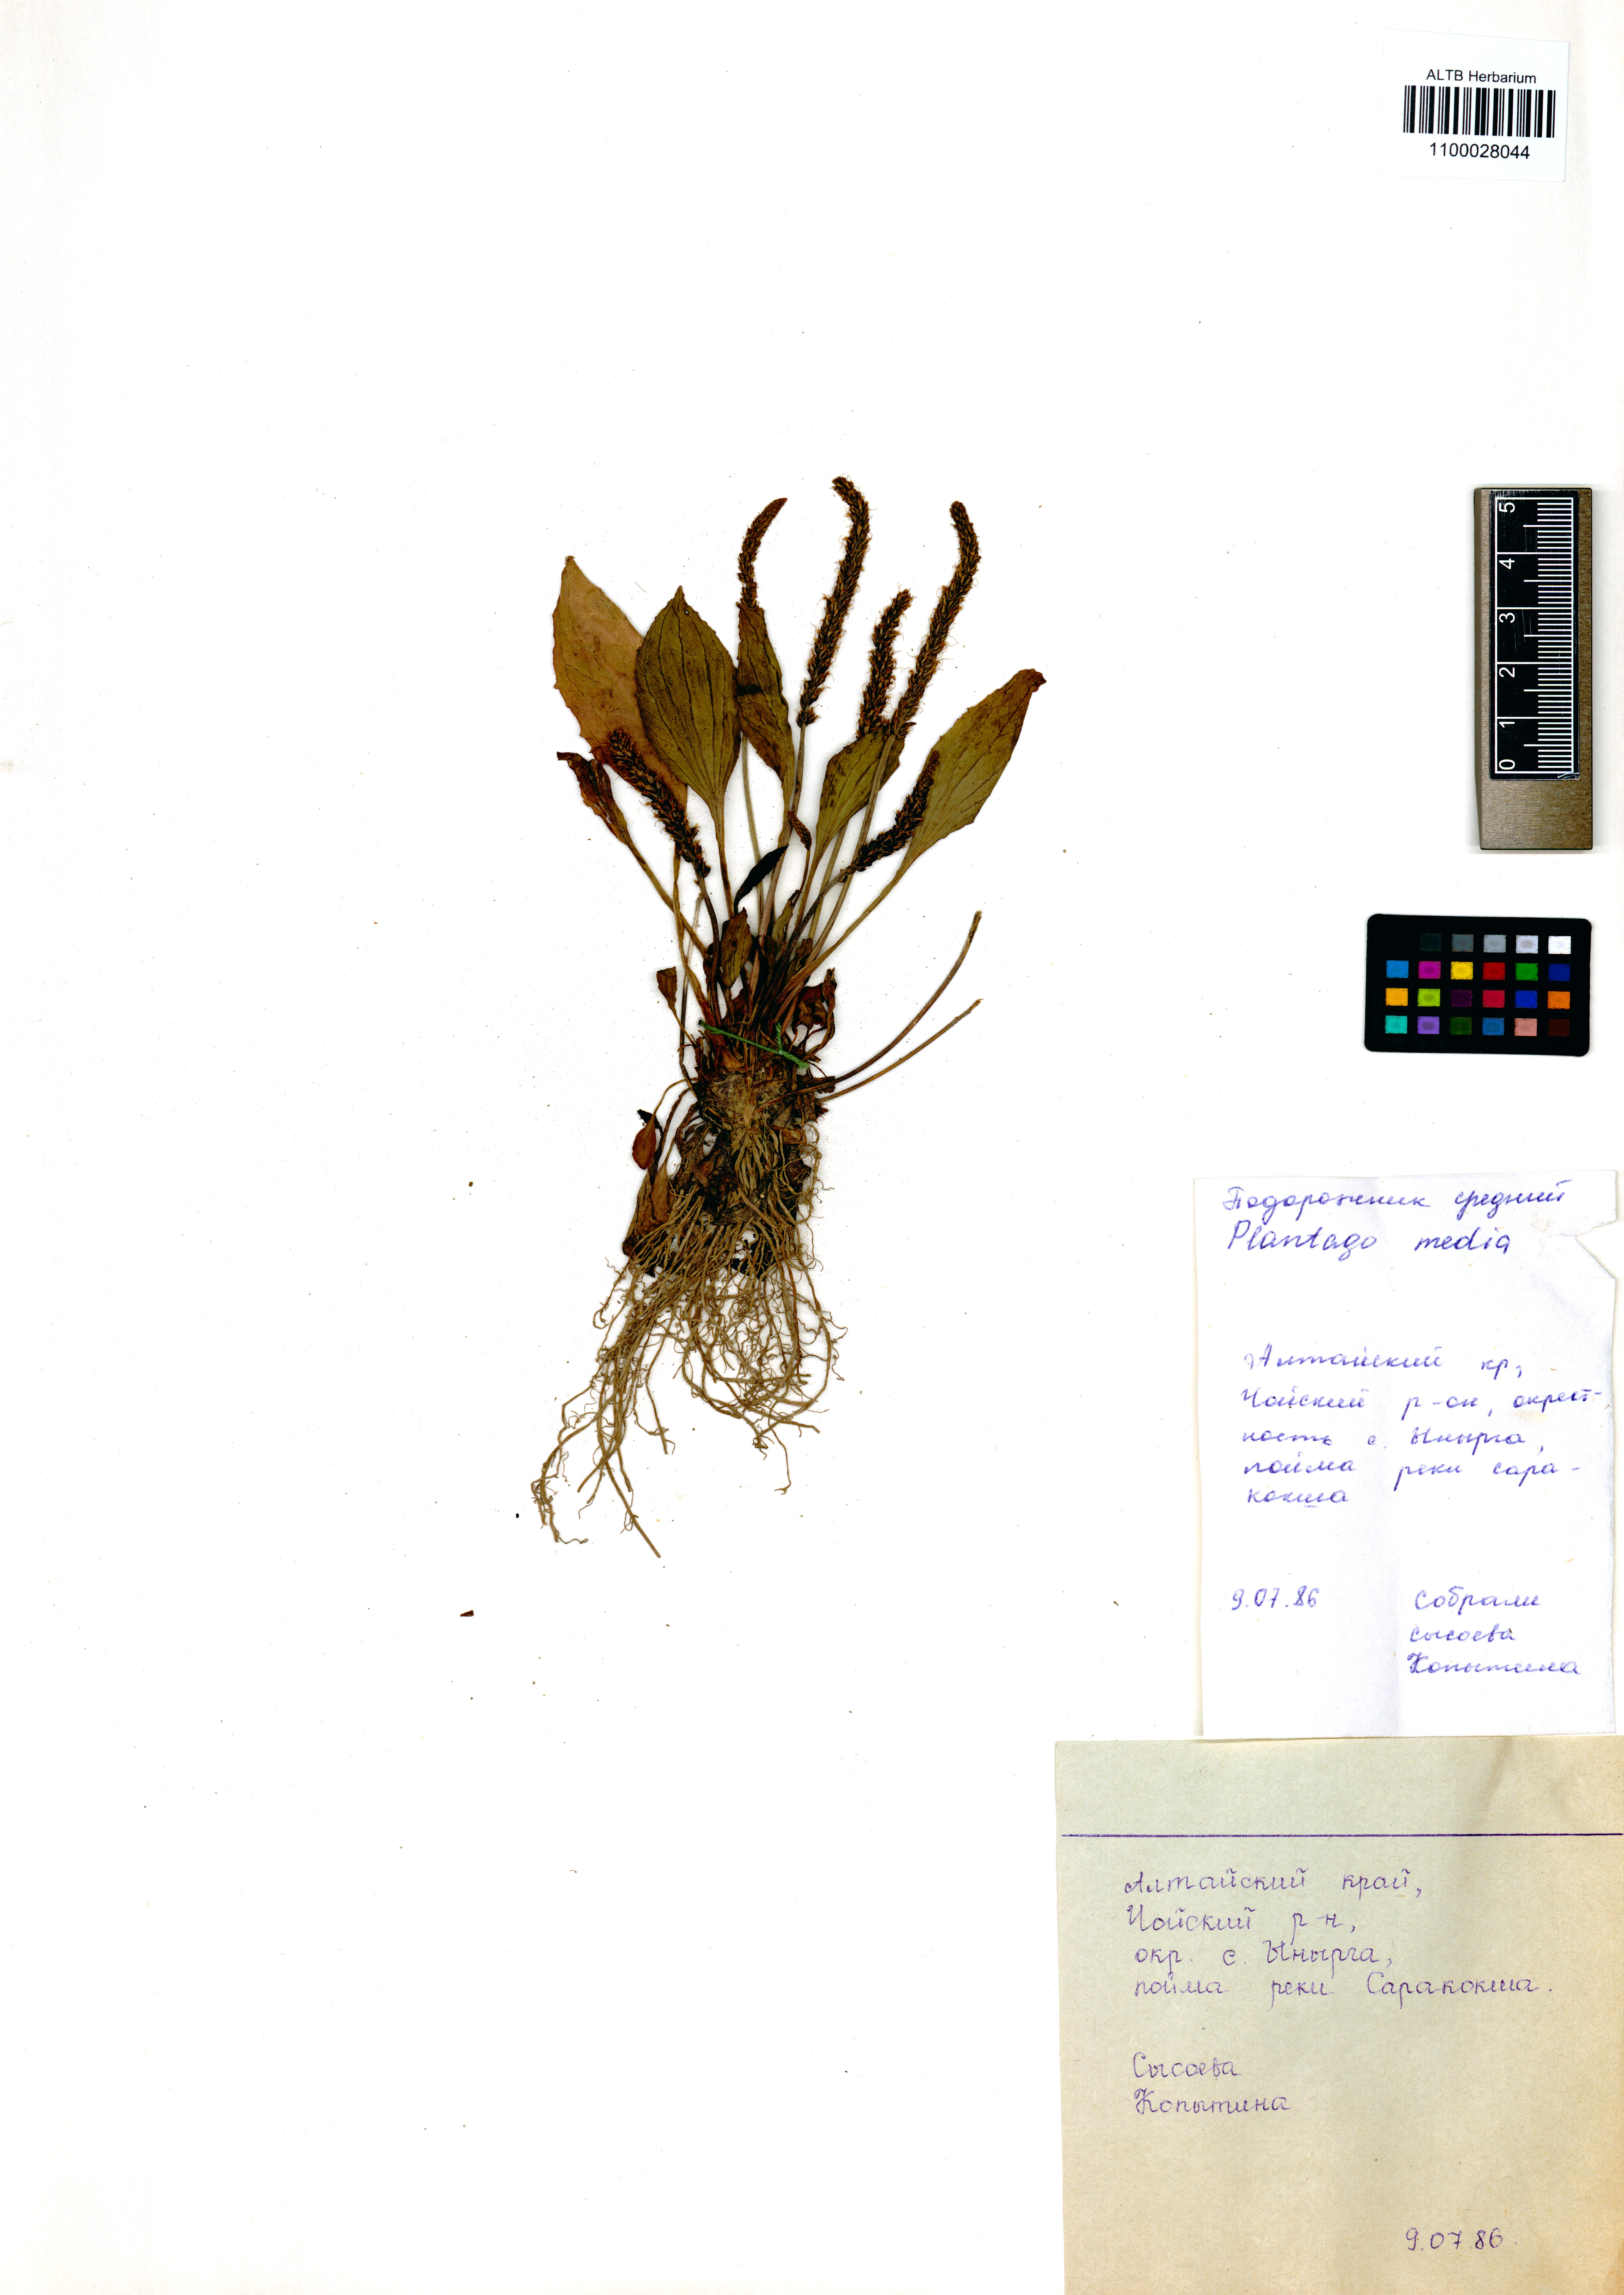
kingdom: Plantae
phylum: Tracheophyta
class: Magnoliopsida
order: Lamiales
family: Plantaginaceae
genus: Plantago
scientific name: Plantago media
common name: Hoary plantain
